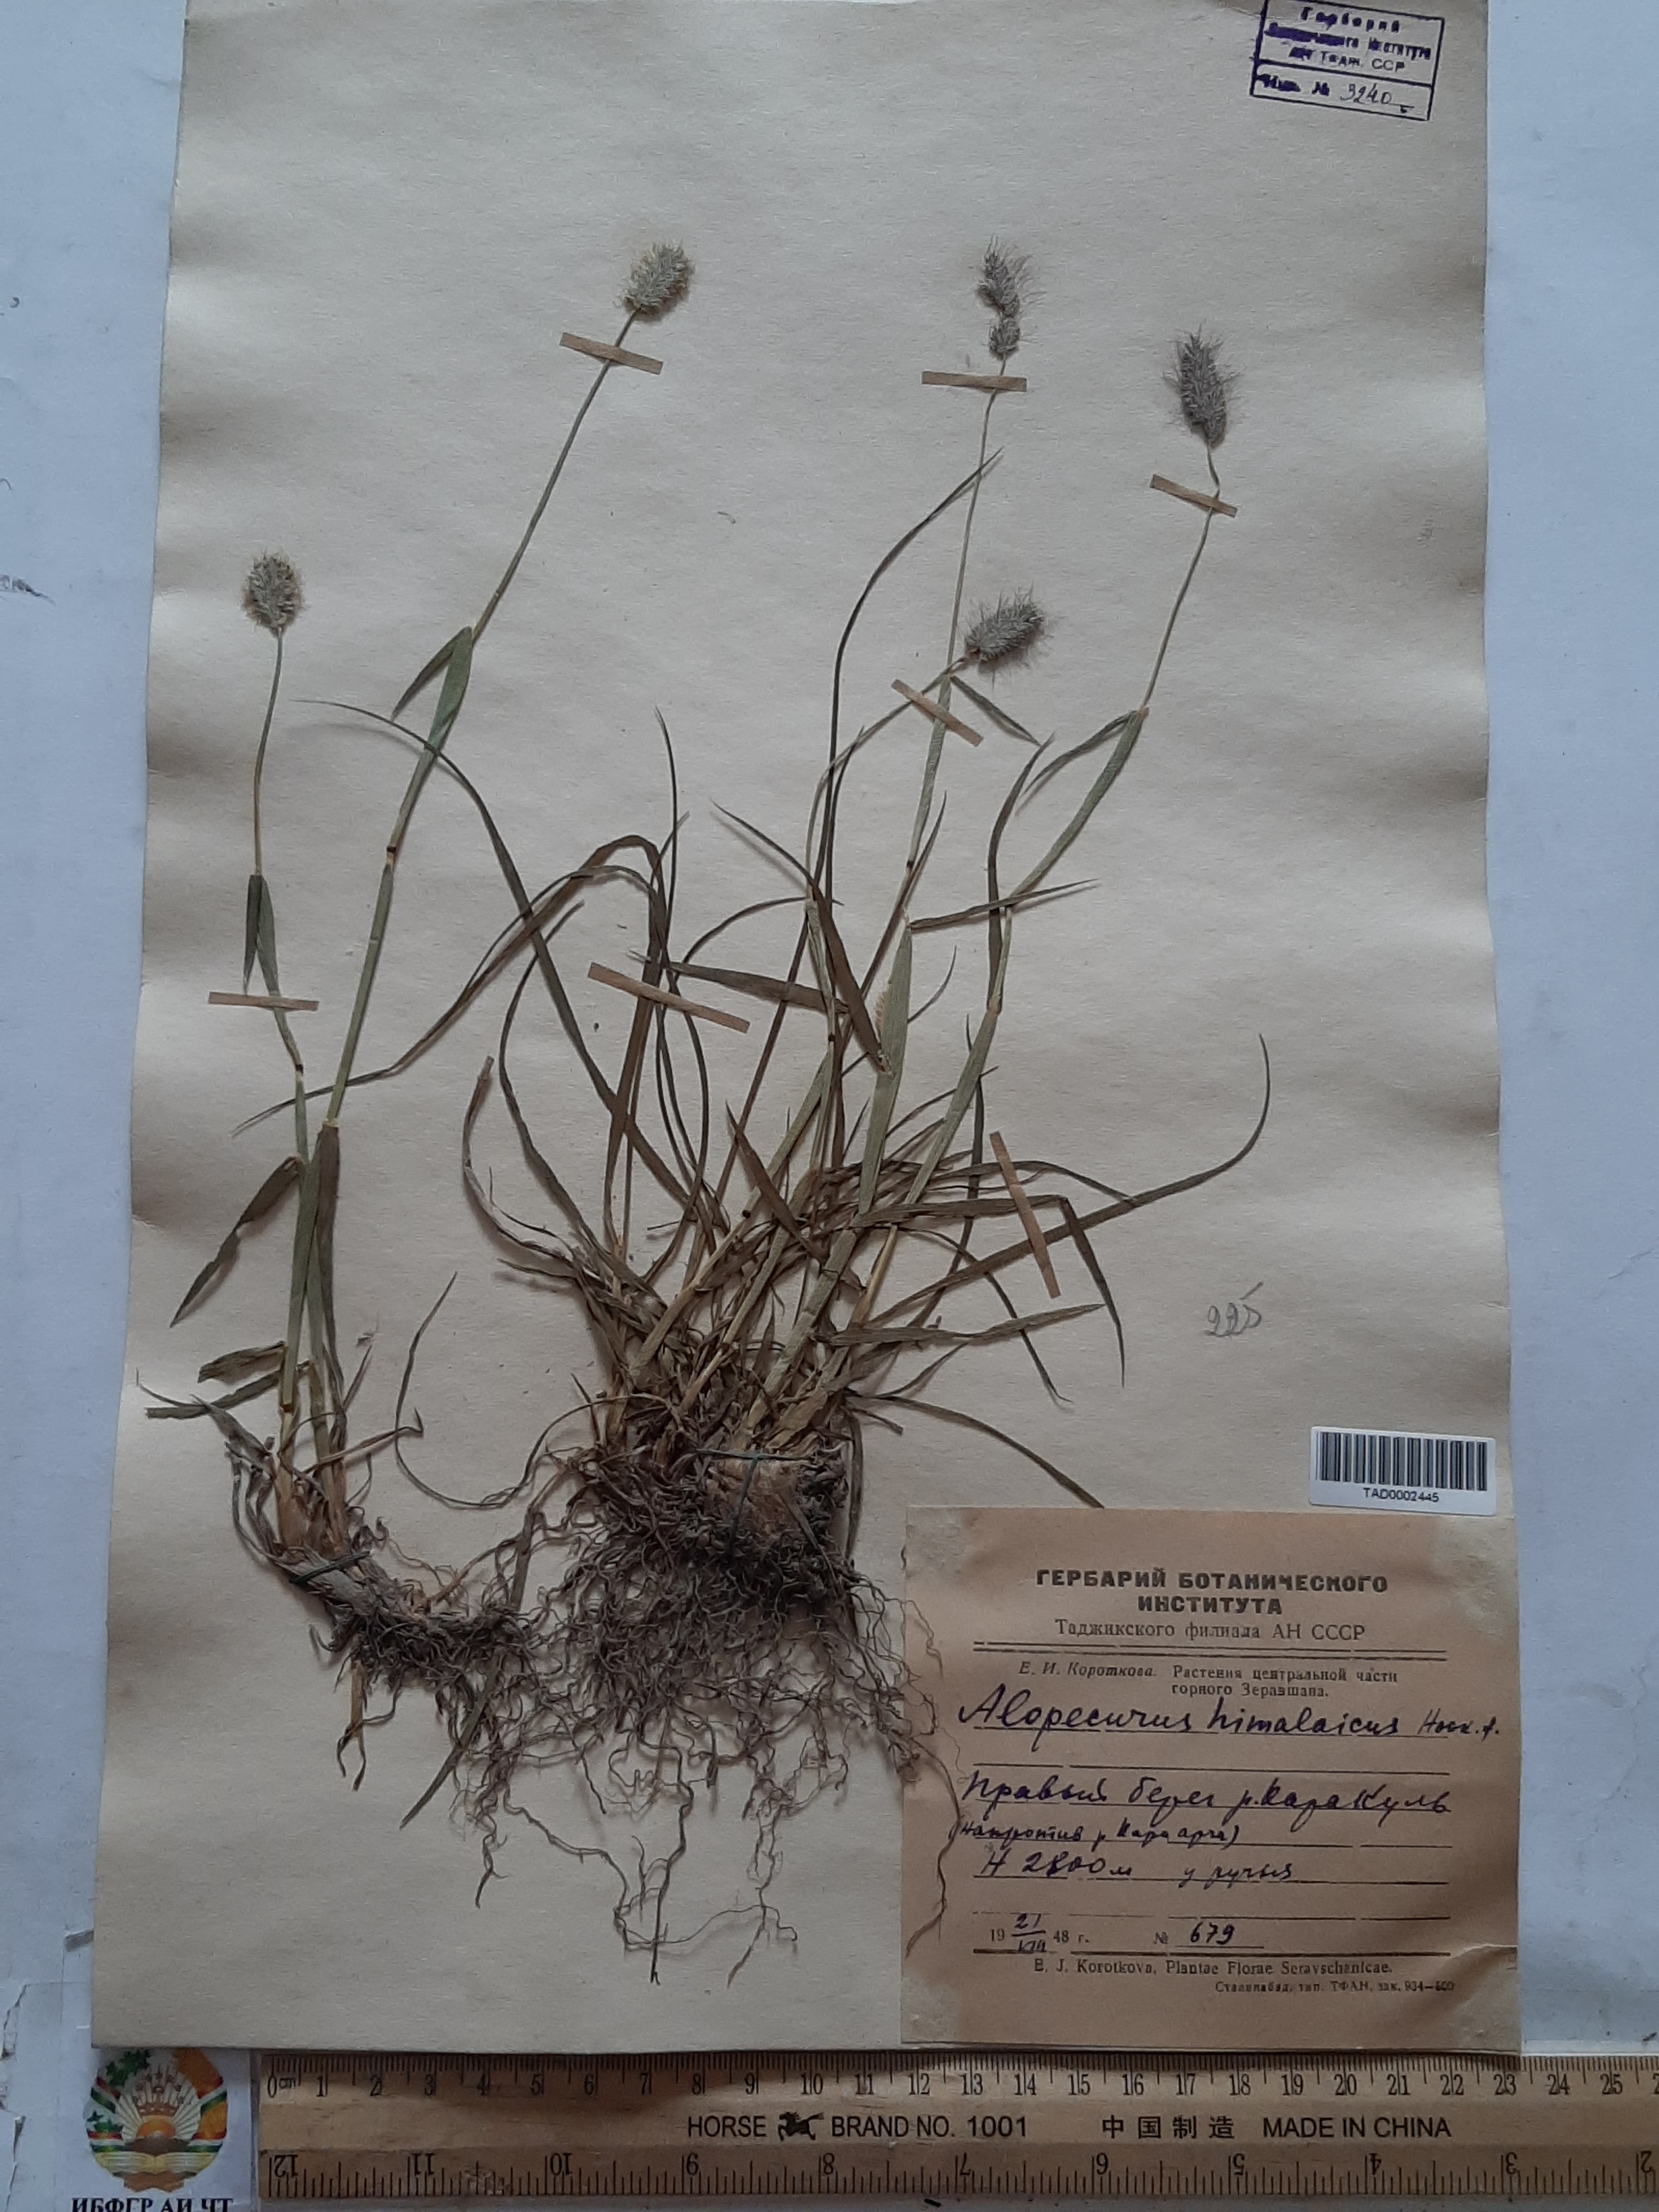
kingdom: Plantae
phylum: Tracheophyta
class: Liliopsida
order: Poales
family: Poaceae
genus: Alopecurus
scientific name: Alopecurus himalaicus
